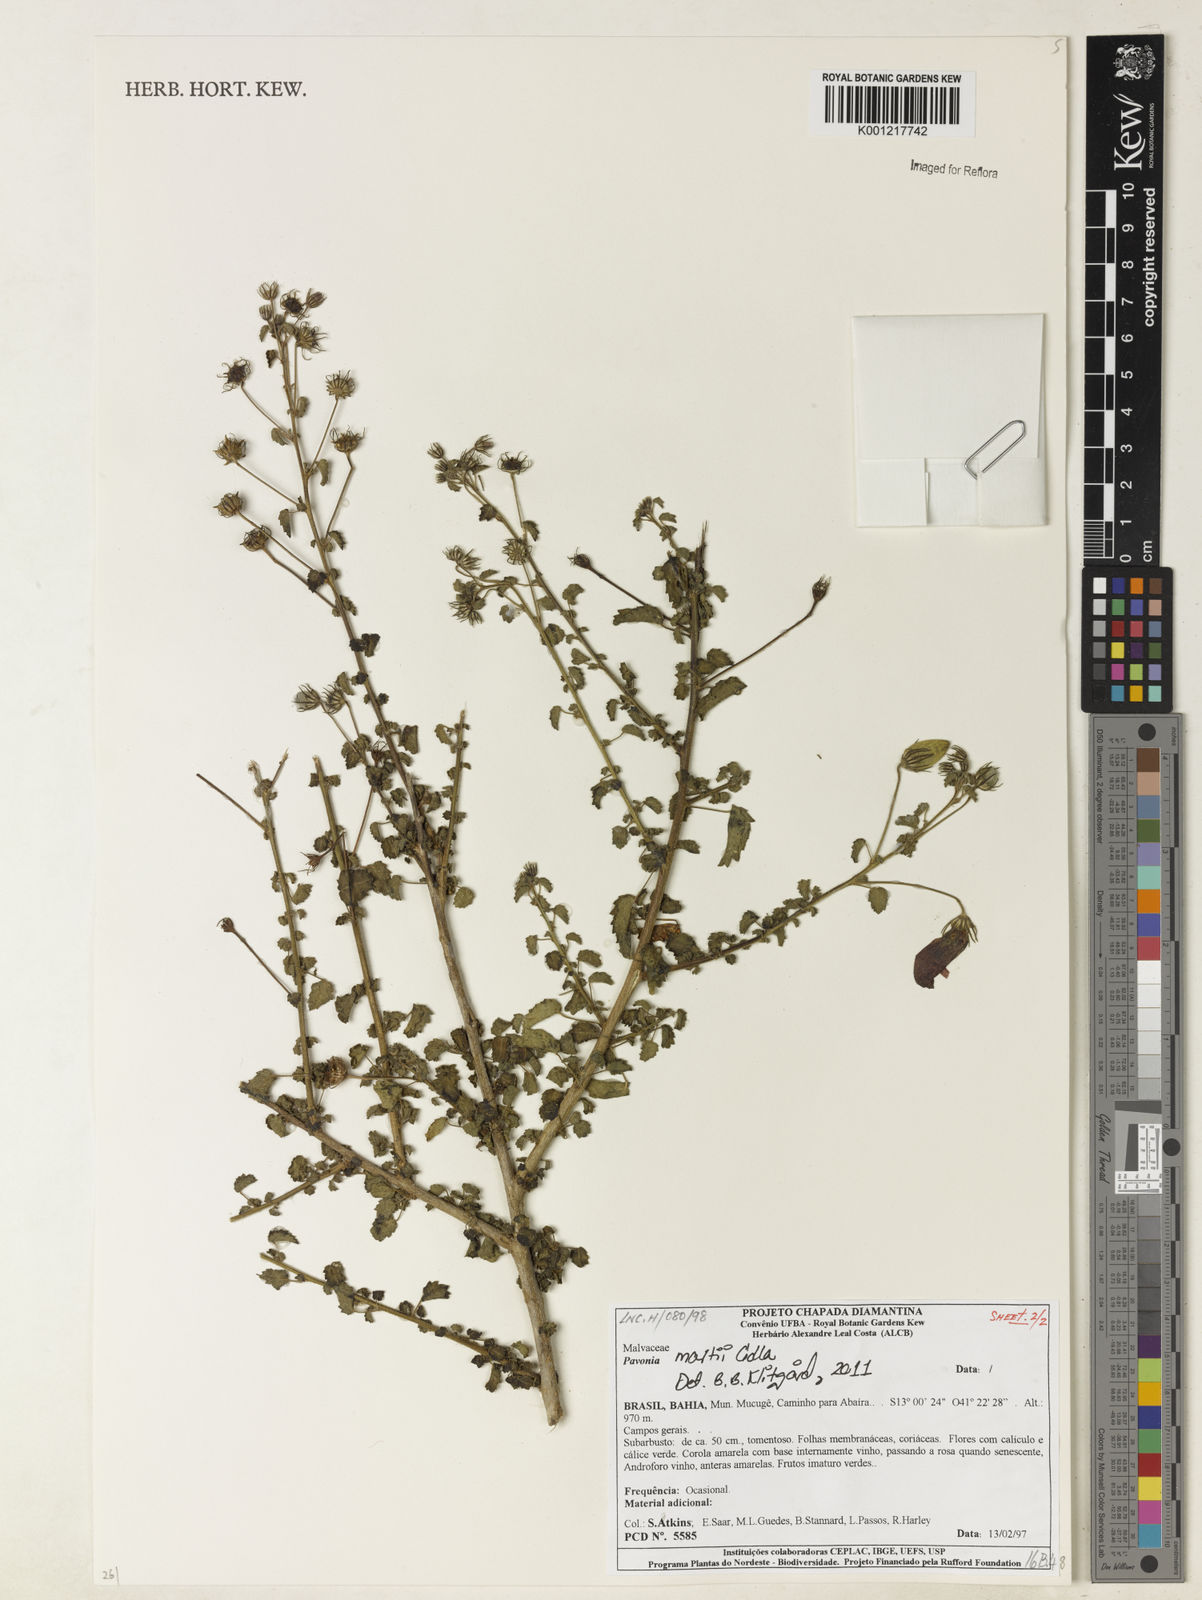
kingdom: Plantae
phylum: Tracheophyta
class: Magnoliopsida
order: Malvales
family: Malvaceae
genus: Pavonia
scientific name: Pavonia martii
